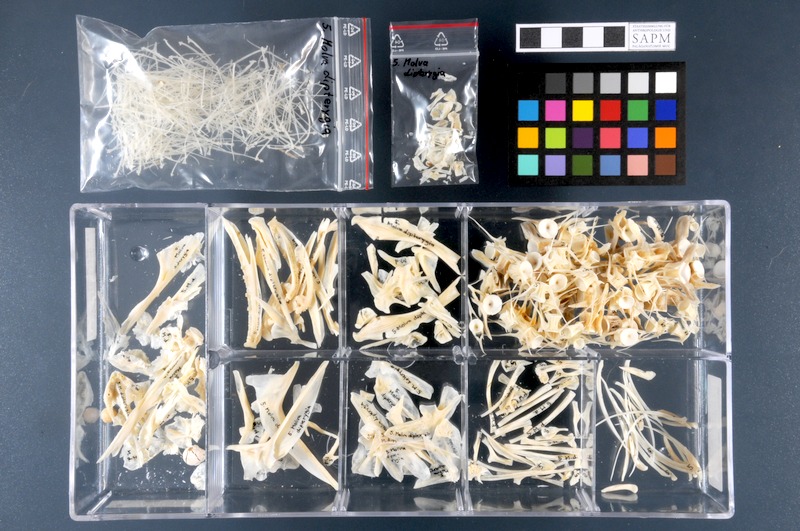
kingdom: Animalia
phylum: Chordata
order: Gadiformes
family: Lotidae
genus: Molva
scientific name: Molva dypterygia
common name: Blue ling
